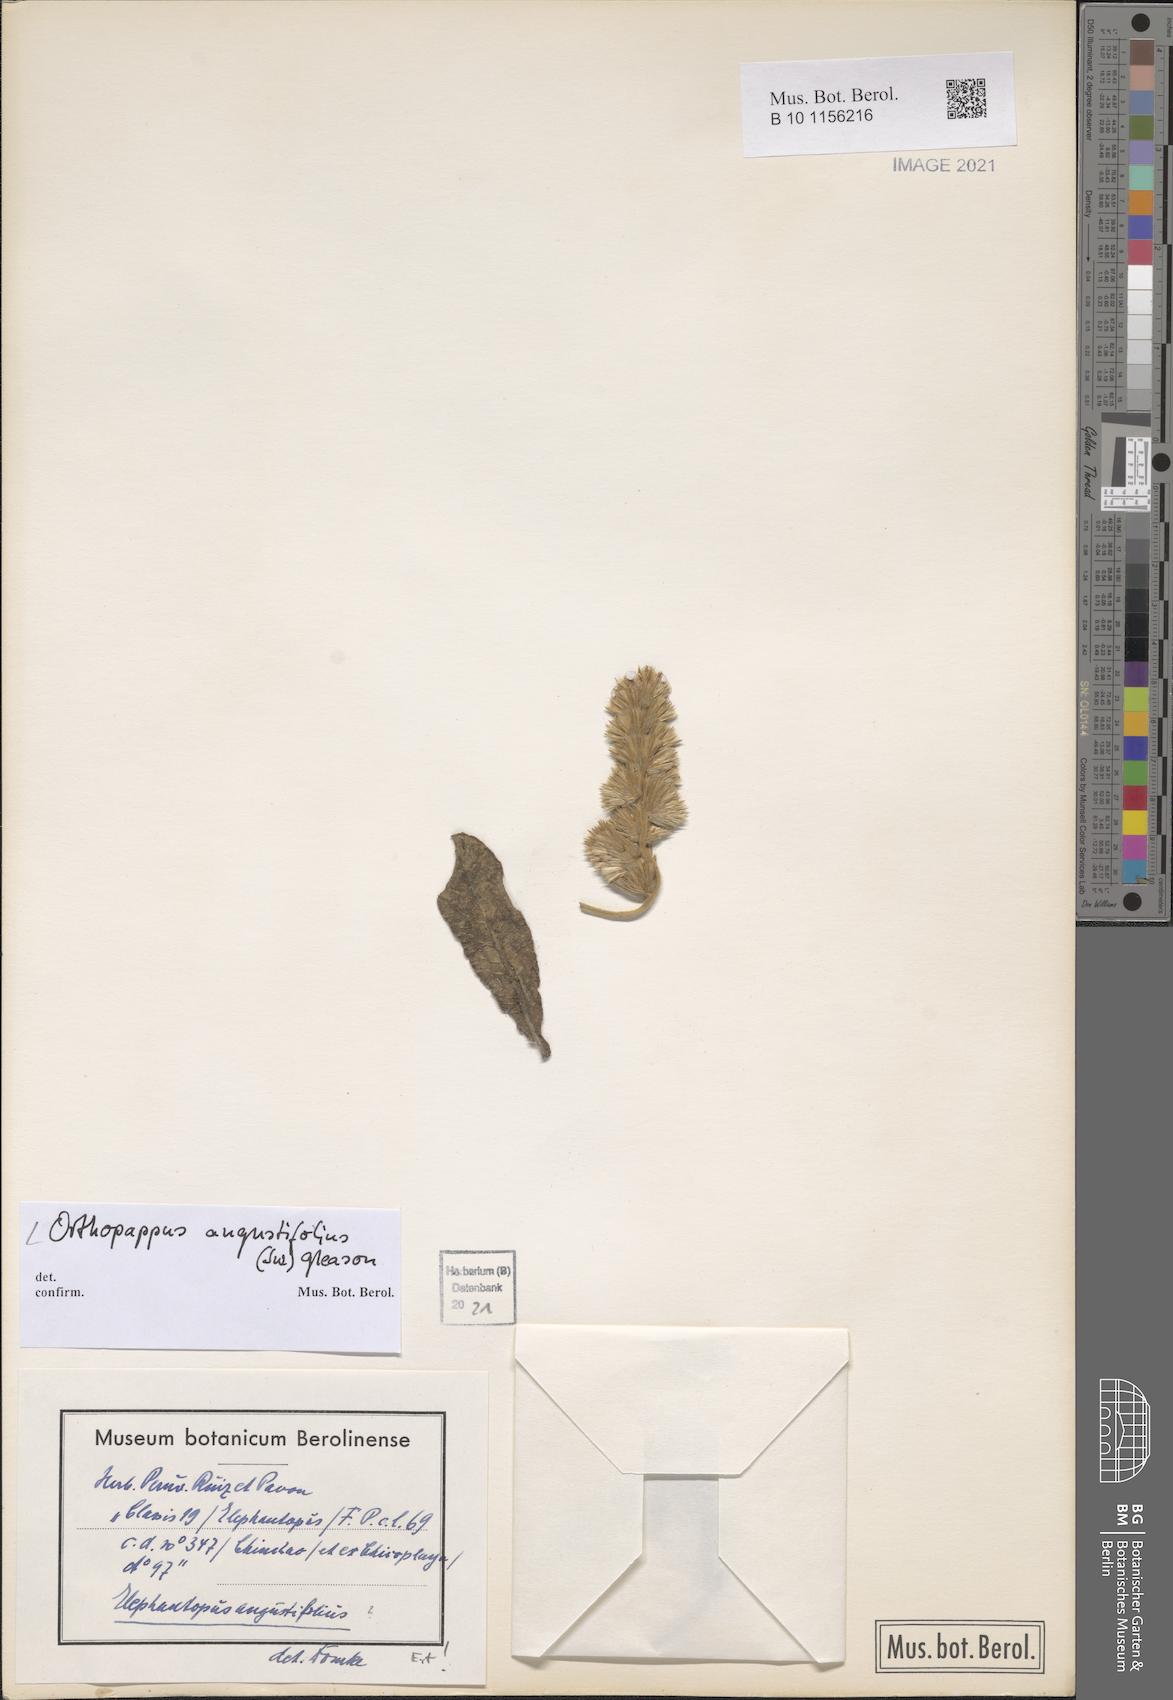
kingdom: Plantae
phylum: Tracheophyta
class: Magnoliopsida
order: Asterales
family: Asteraceae
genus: Orthopappus
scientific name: Orthopappus angustifolius
